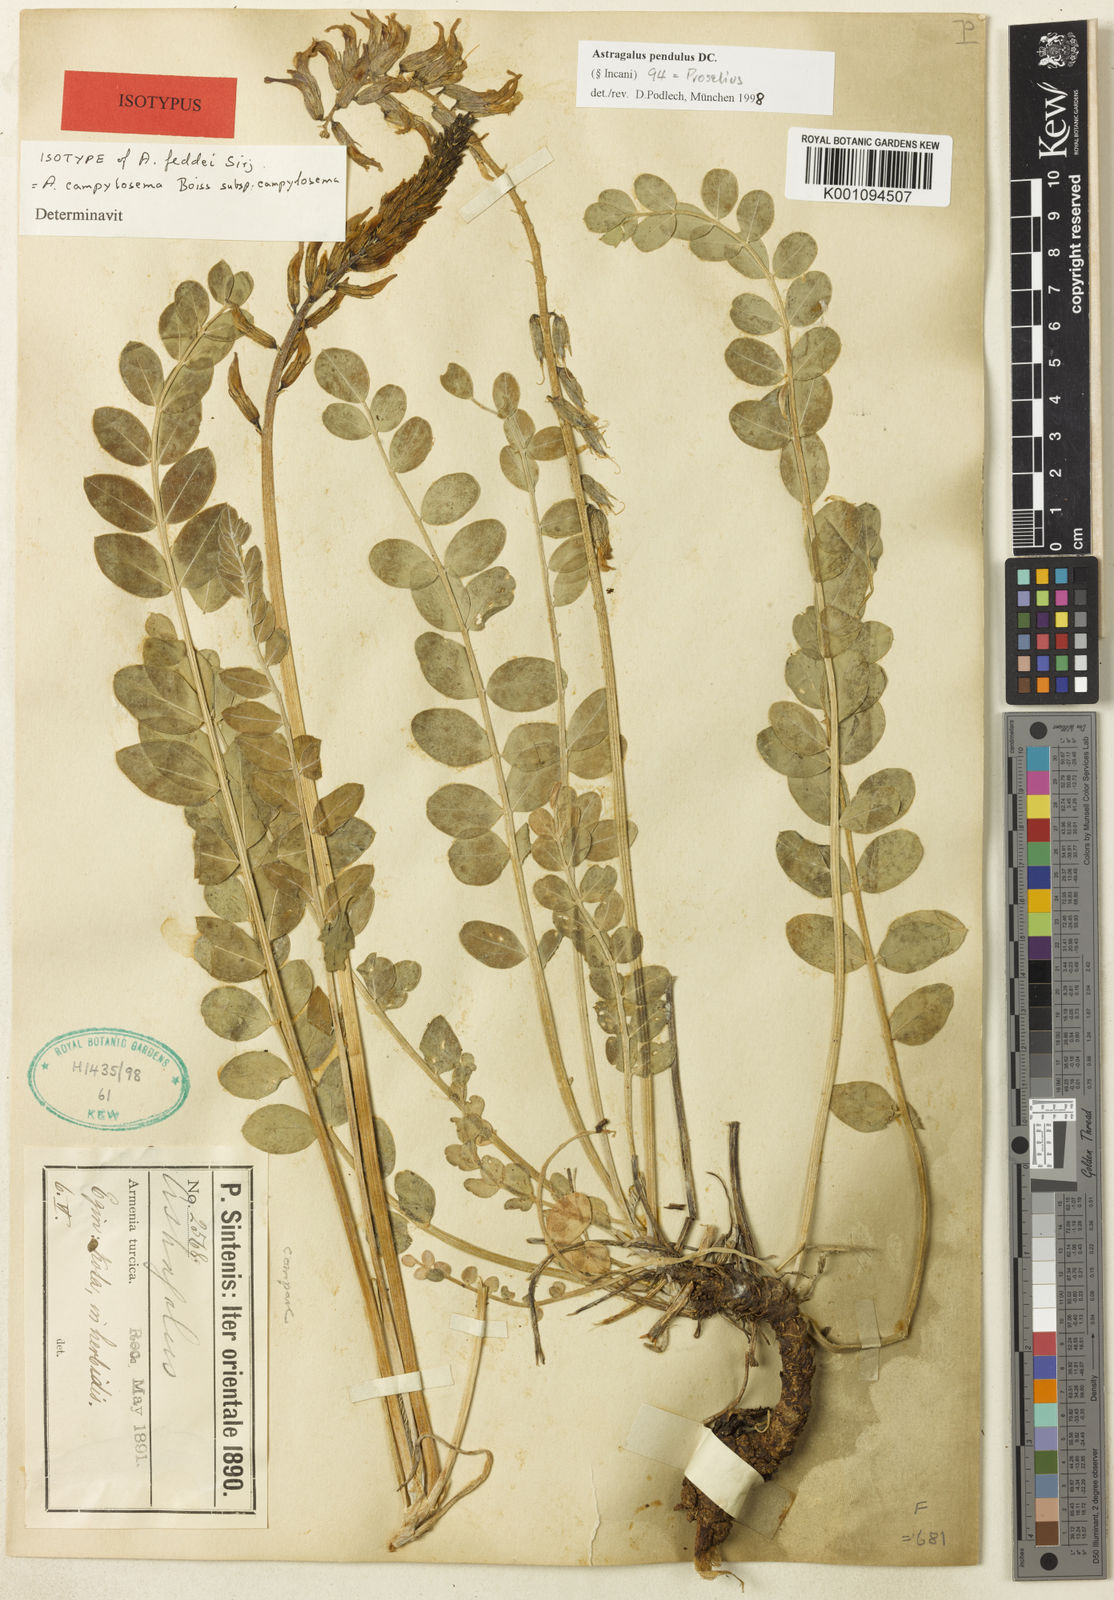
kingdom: Plantae
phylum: Tracheophyta
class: Magnoliopsida
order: Fabales
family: Fabaceae
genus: Astragalus
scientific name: Astragalus
